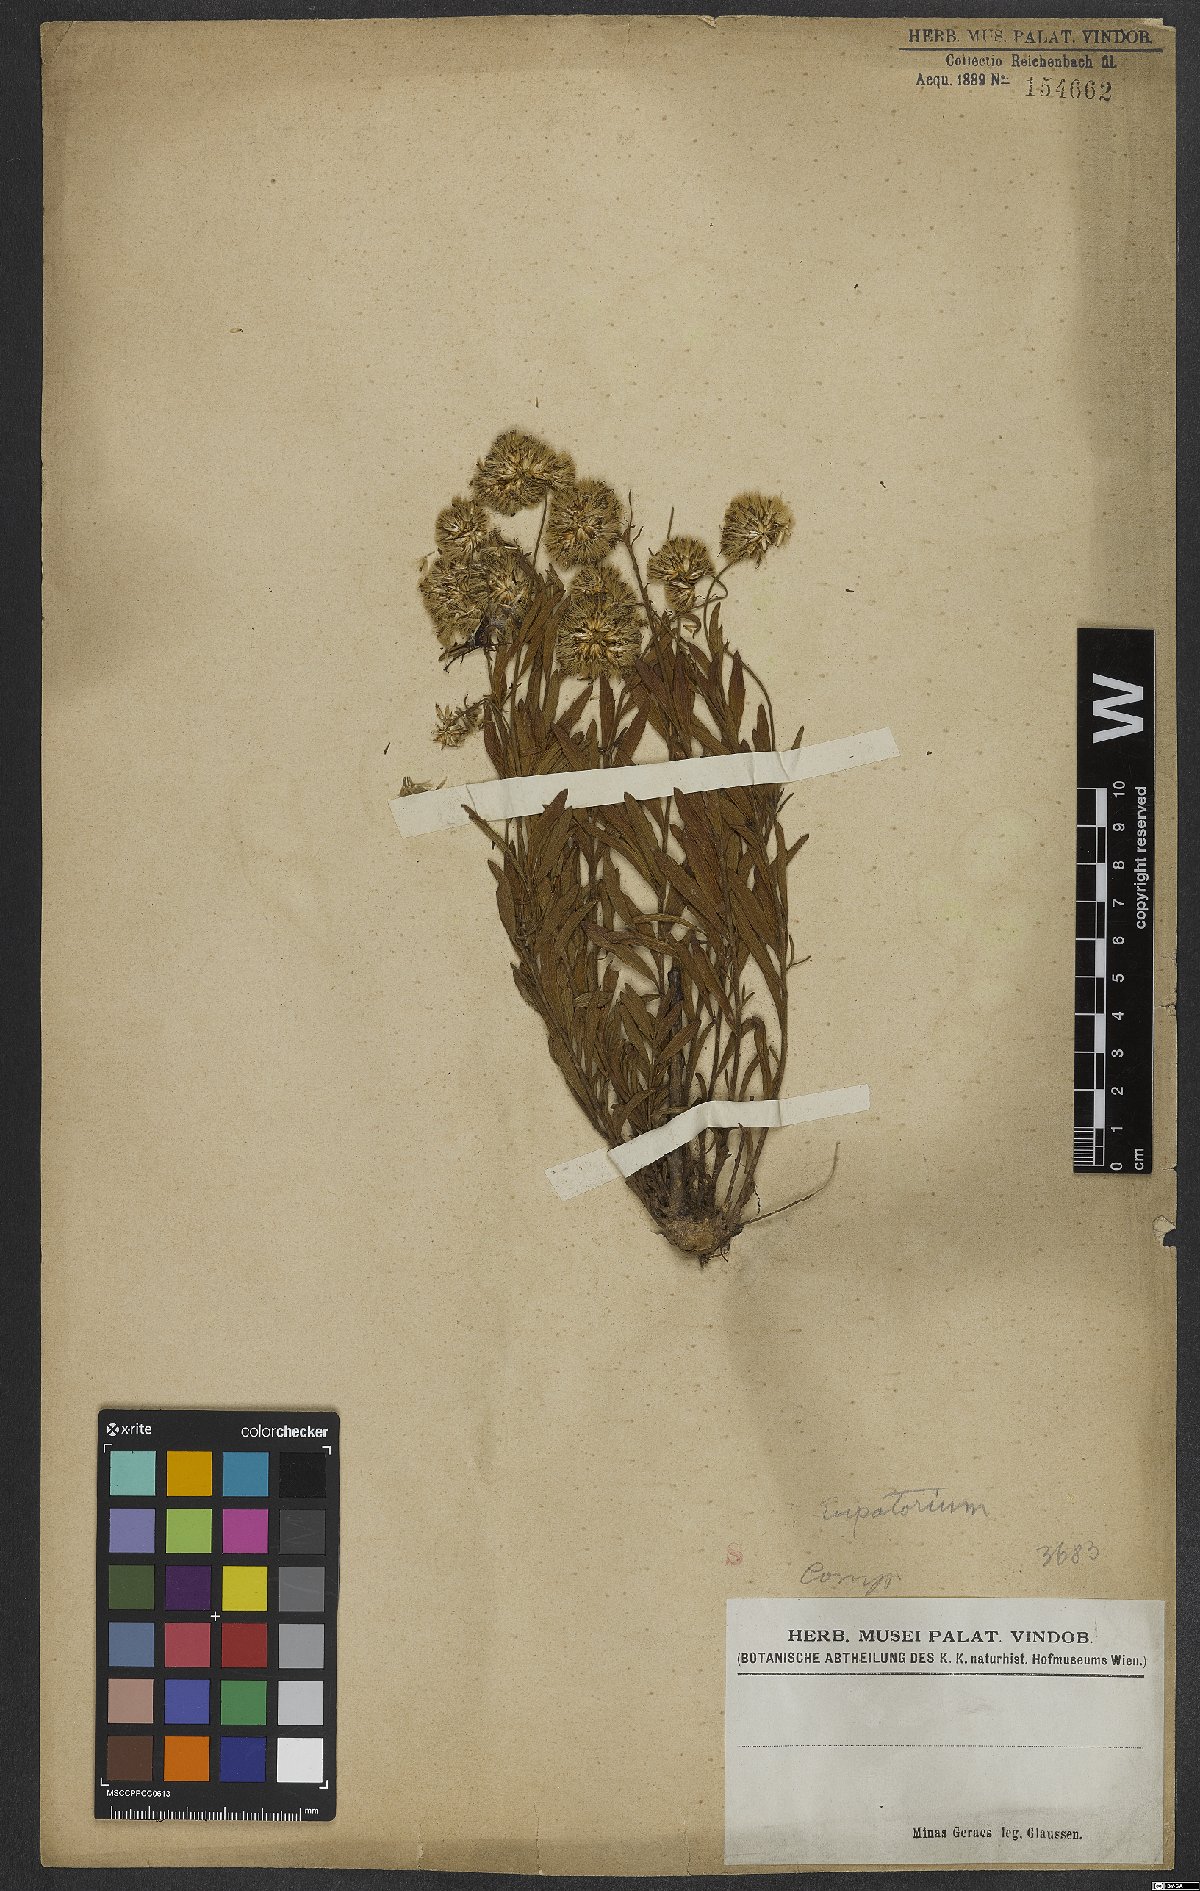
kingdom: Plantae
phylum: Tracheophyta
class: Magnoliopsida
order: Asterales
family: Asteraceae
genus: Eupatorium
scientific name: Eupatorium
